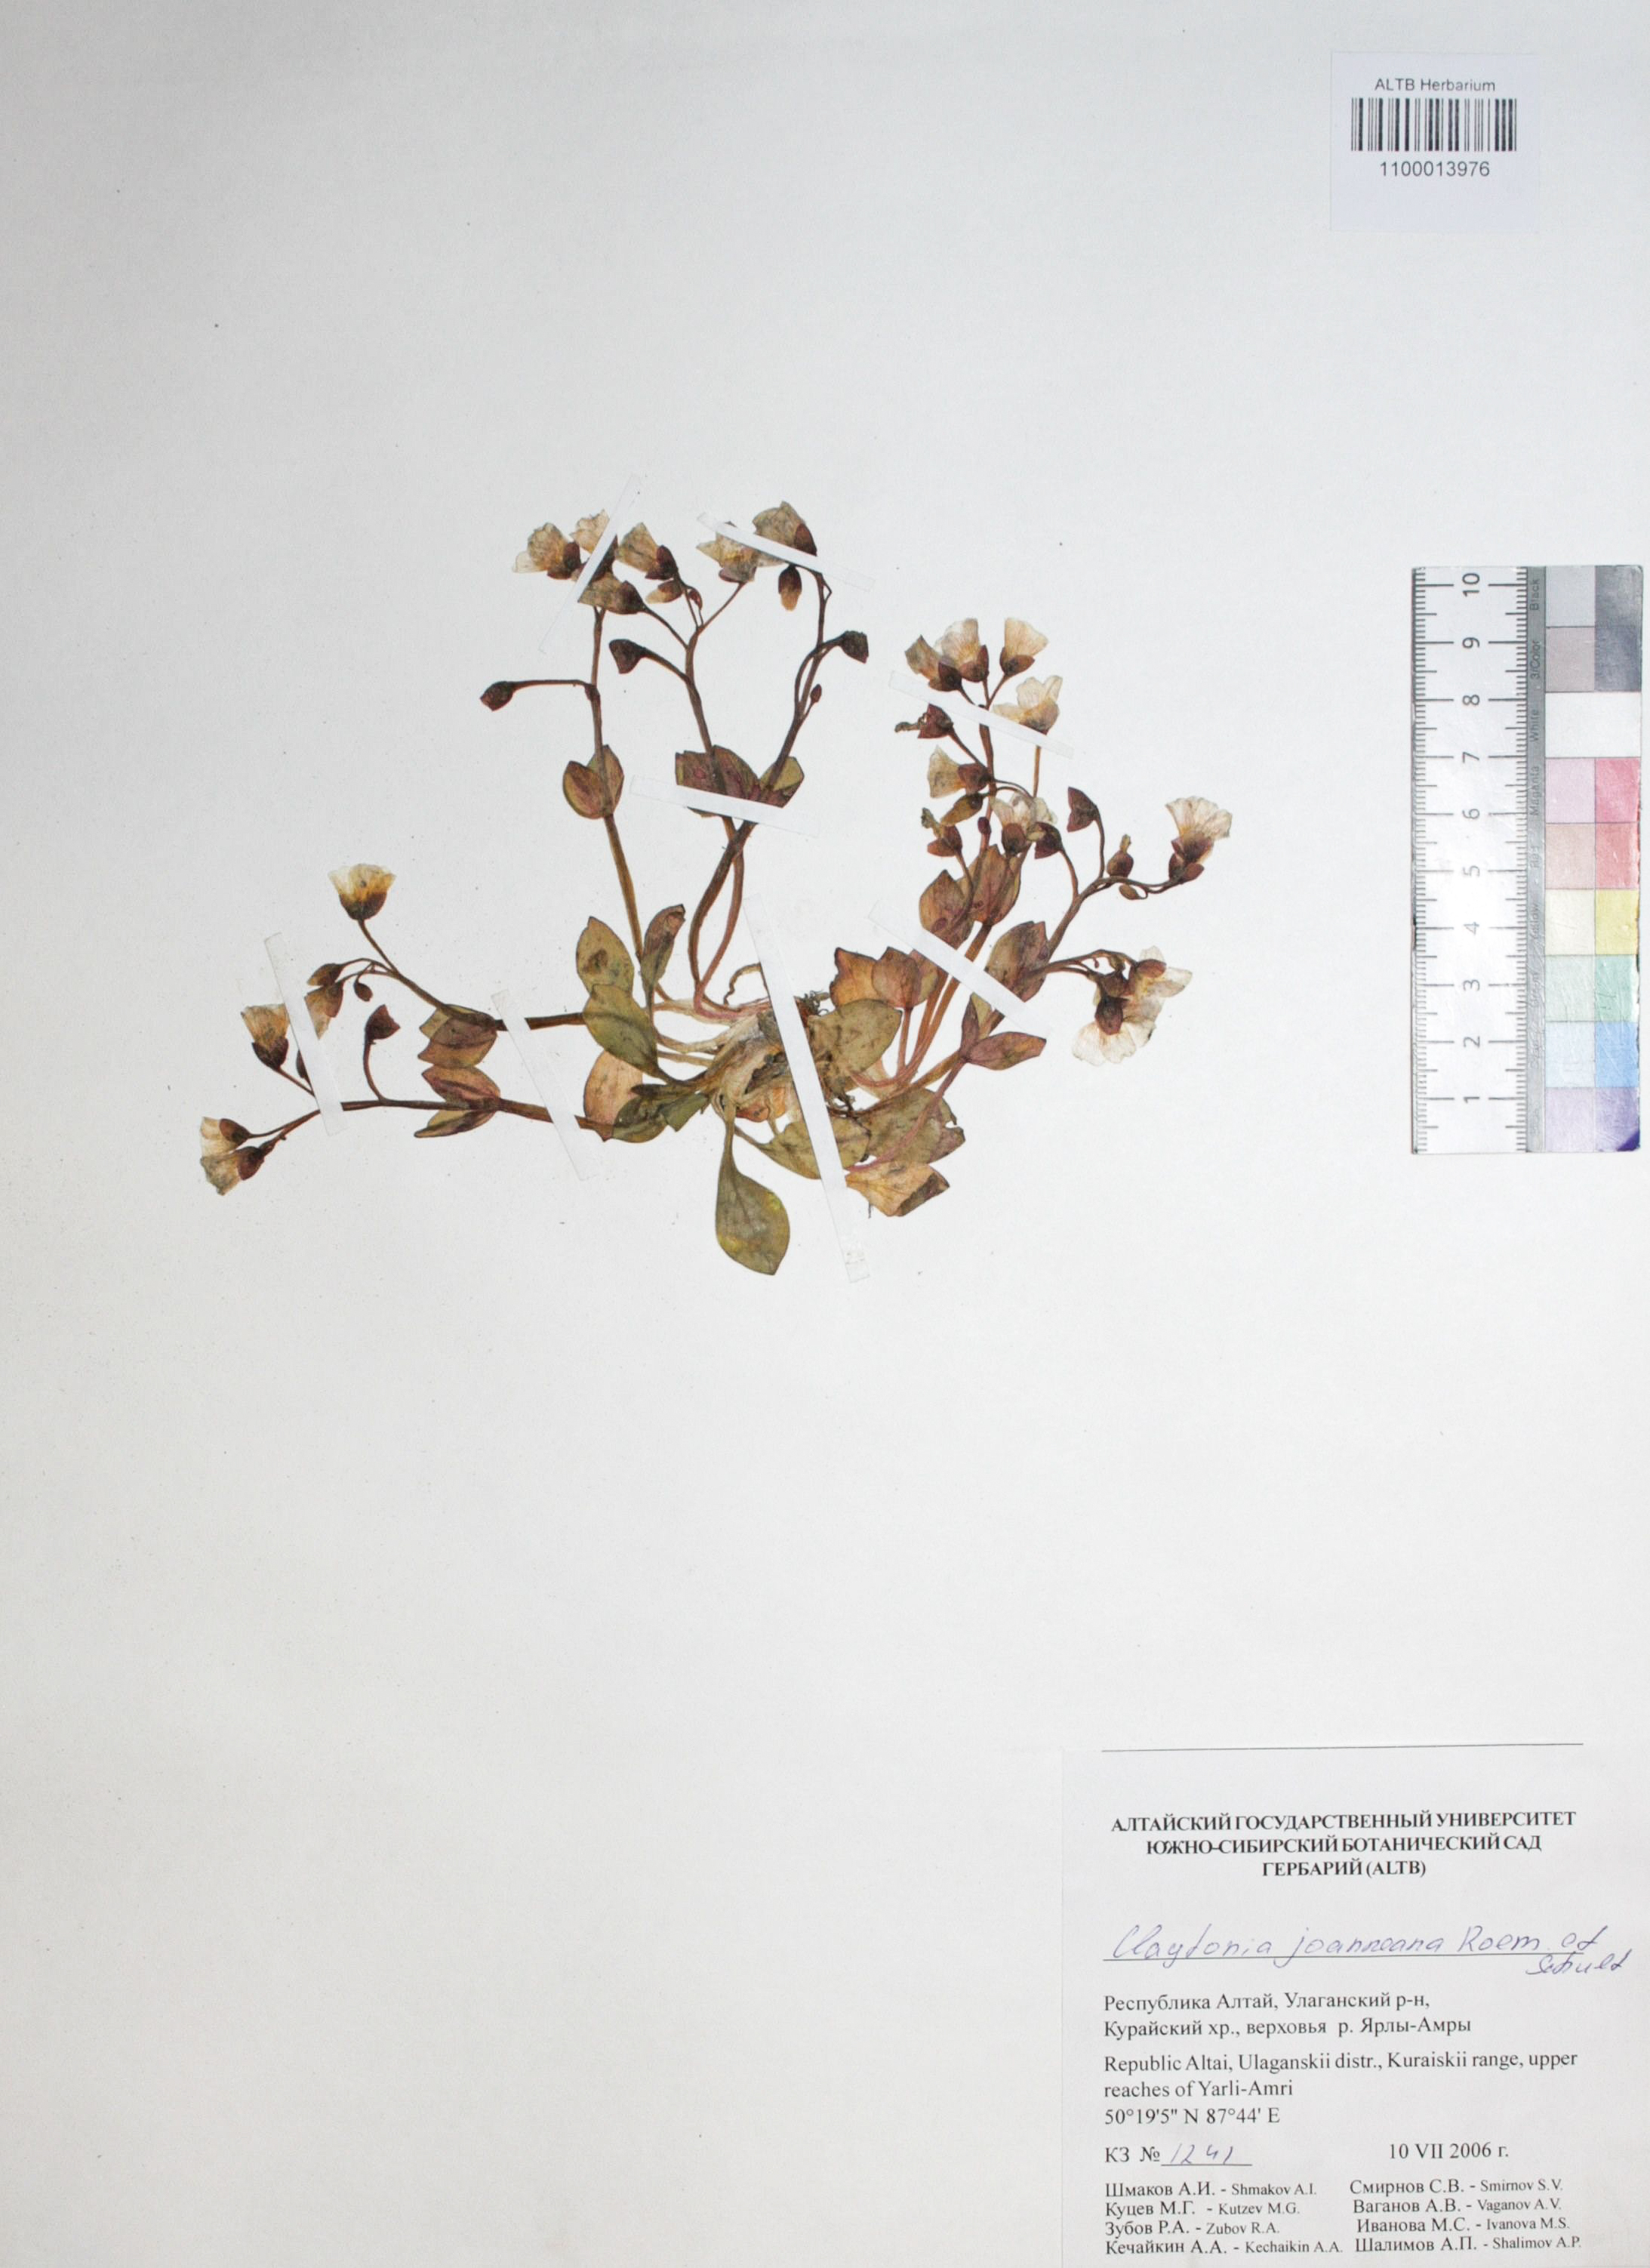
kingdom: Plantae
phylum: Tracheophyta
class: Magnoliopsida
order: Caryophyllales
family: Montiaceae
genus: Claytonia
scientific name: Claytonia joanneana
